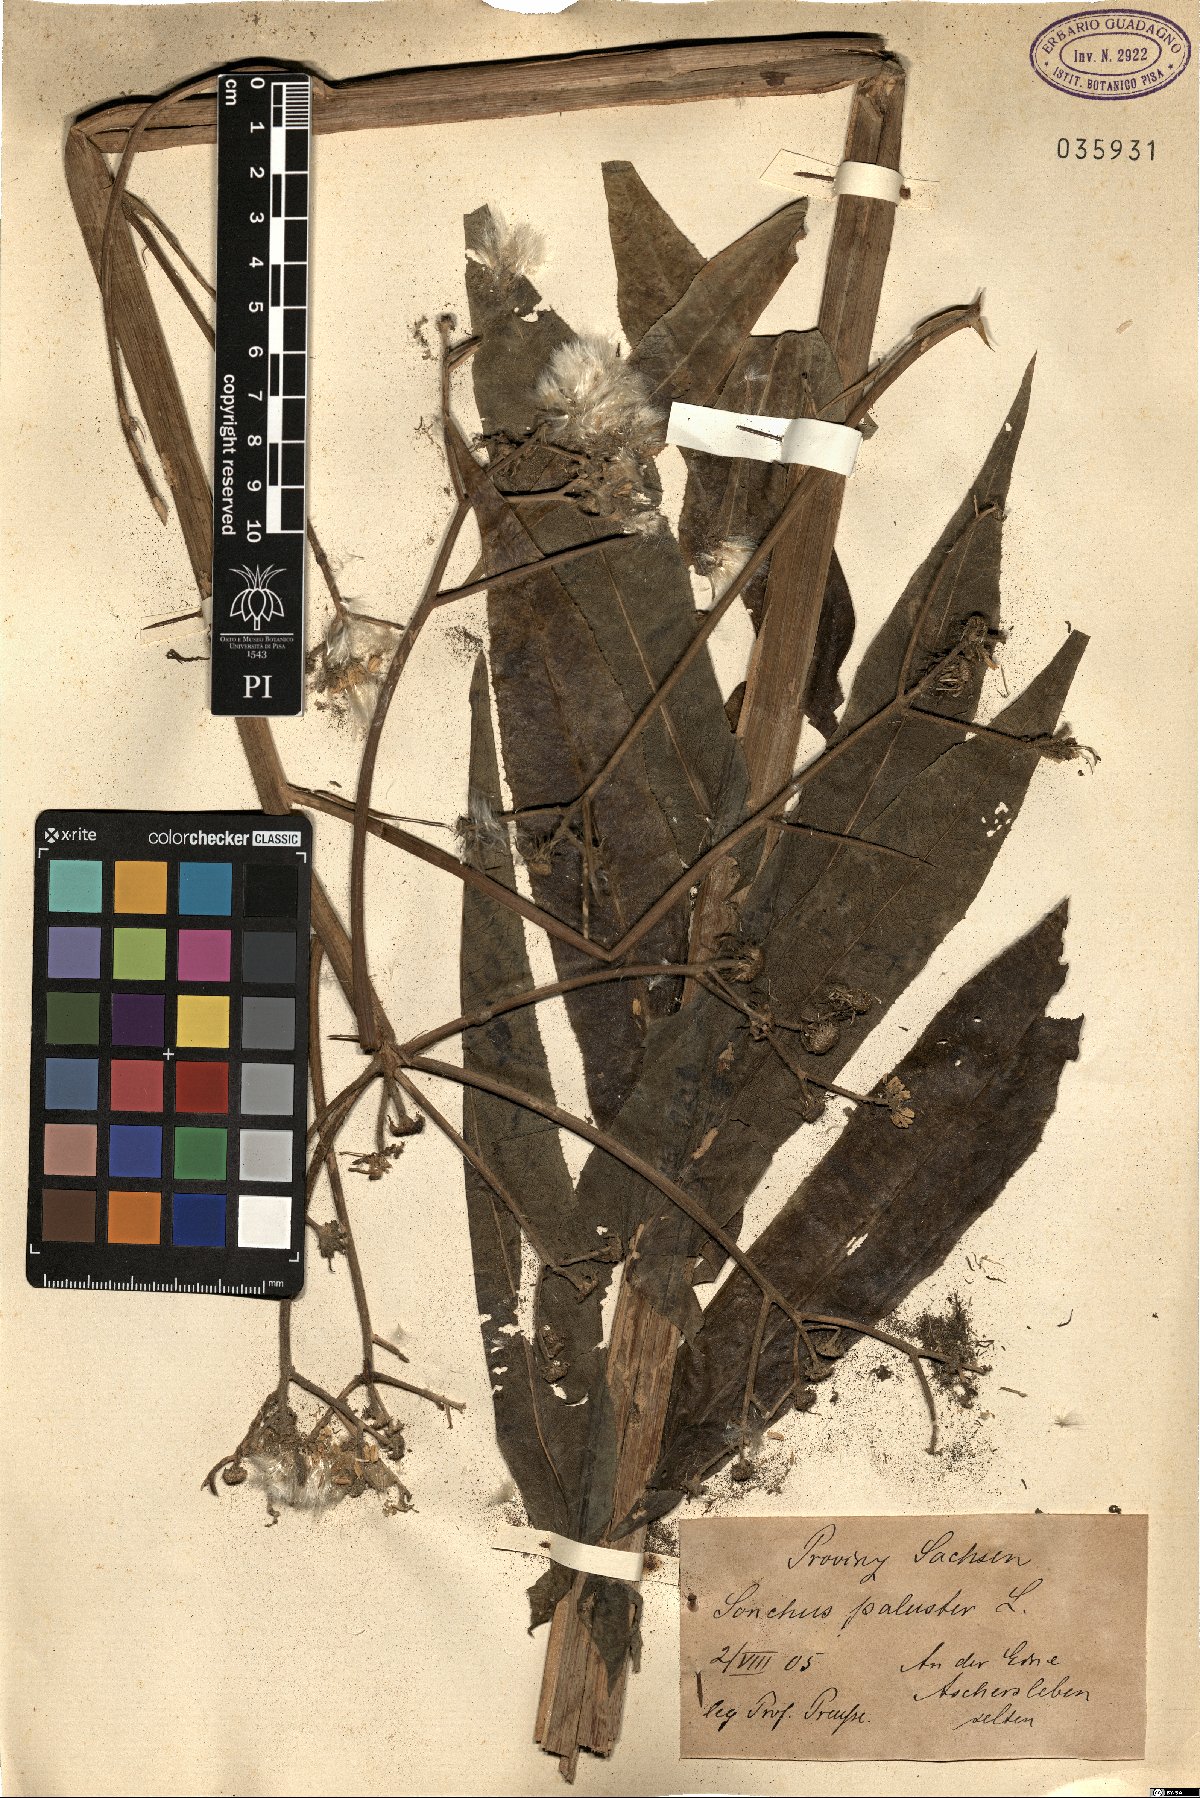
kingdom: Plantae
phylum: Tracheophyta
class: Magnoliopsida
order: Asterales
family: Asteraceae
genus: Sonchus
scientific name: Sonchus palustris
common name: Marsh sow-thistle
